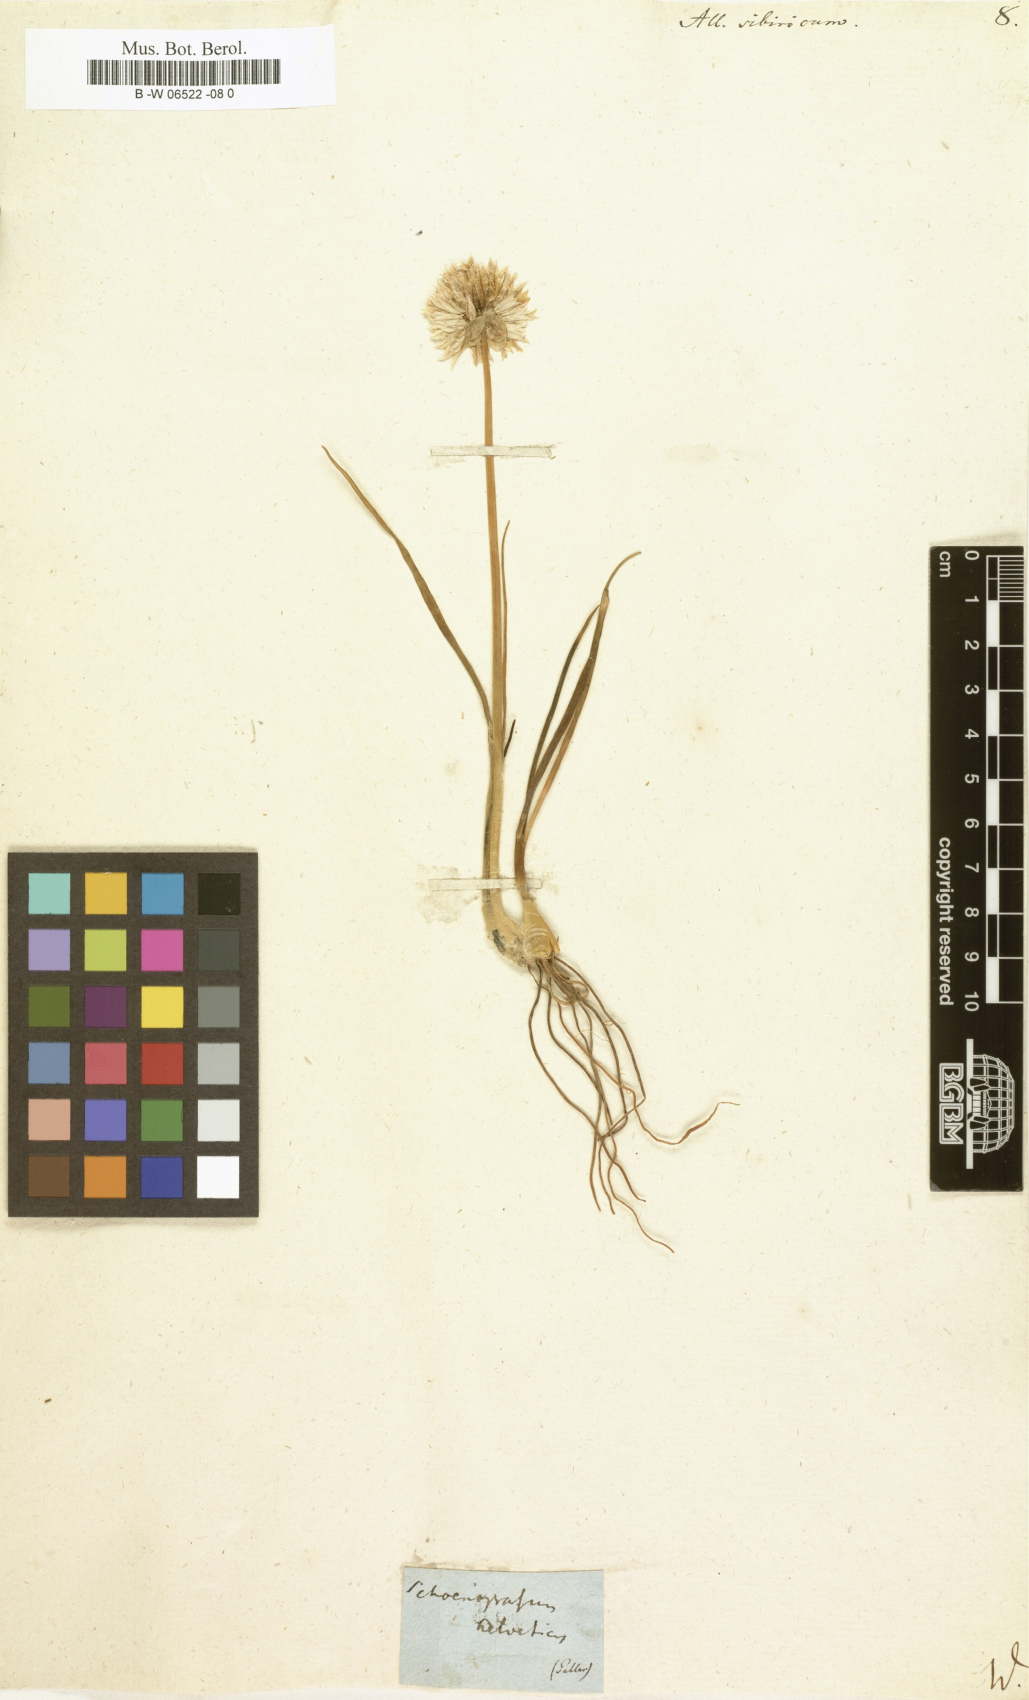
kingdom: Plantae
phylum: Tracheophyta
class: Liliopsida
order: Asparagales
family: Amaryllidaceae
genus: Allium
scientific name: Allium schoenoprasum
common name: Chives
